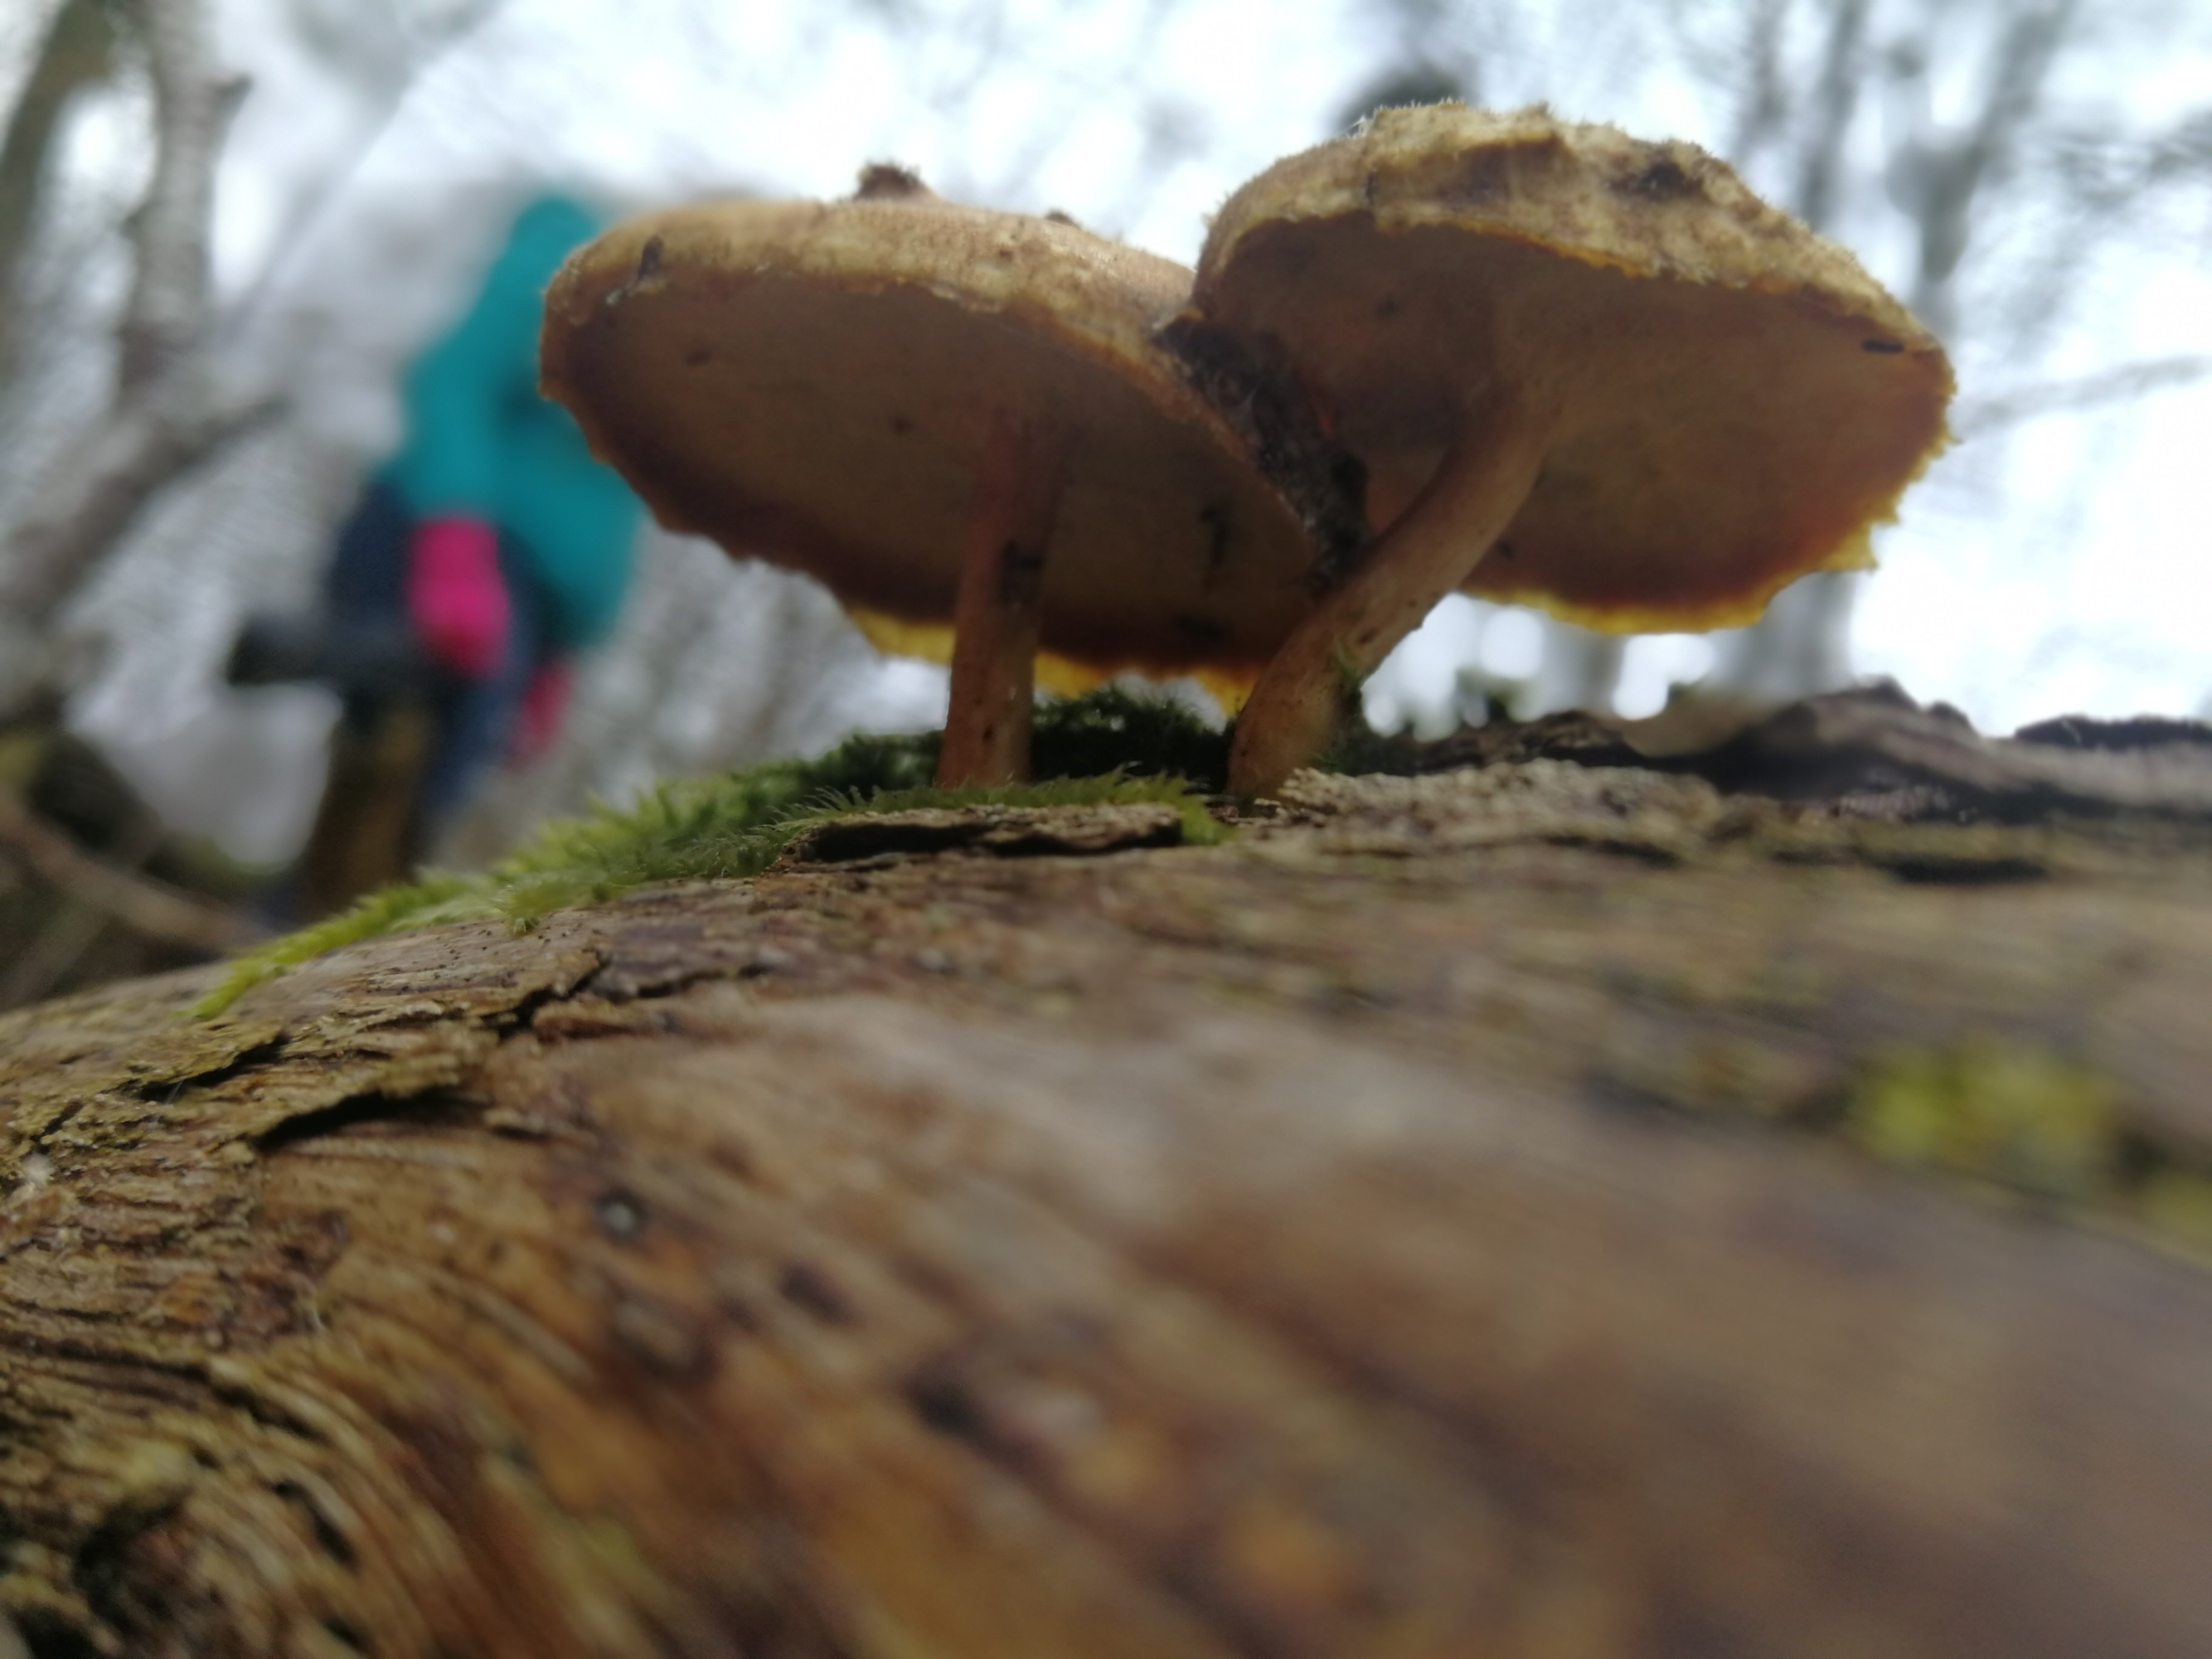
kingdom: Fungi
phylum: Basidiomycota
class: Agaricomycetes
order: Polyporales
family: Polyporaceae
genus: Lentinus
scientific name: Lentinus brumalis
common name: vinter-stilkporesvamp
